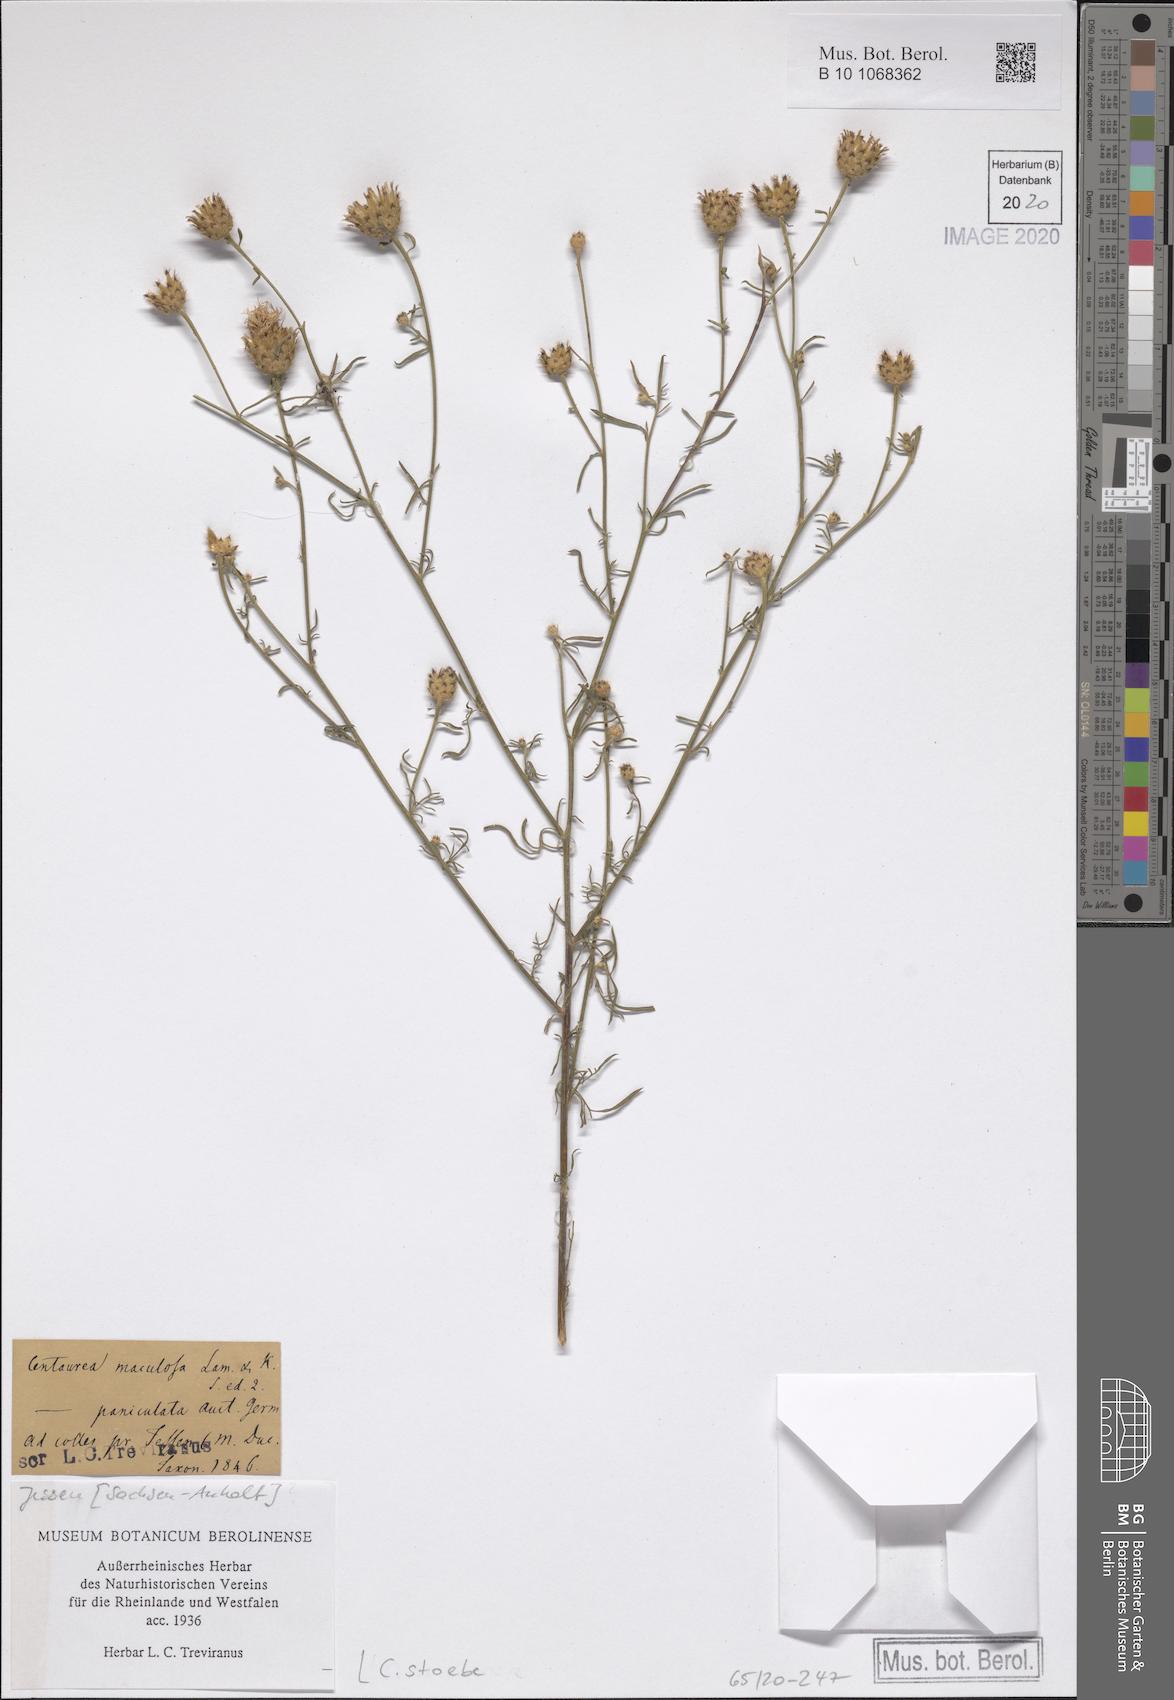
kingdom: Plantae
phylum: Tracheophyta
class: Magnoliopsida
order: Asterales
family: Asteraceae
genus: Centaurea
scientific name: Centaurea stoebe
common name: Spotted knapweed
